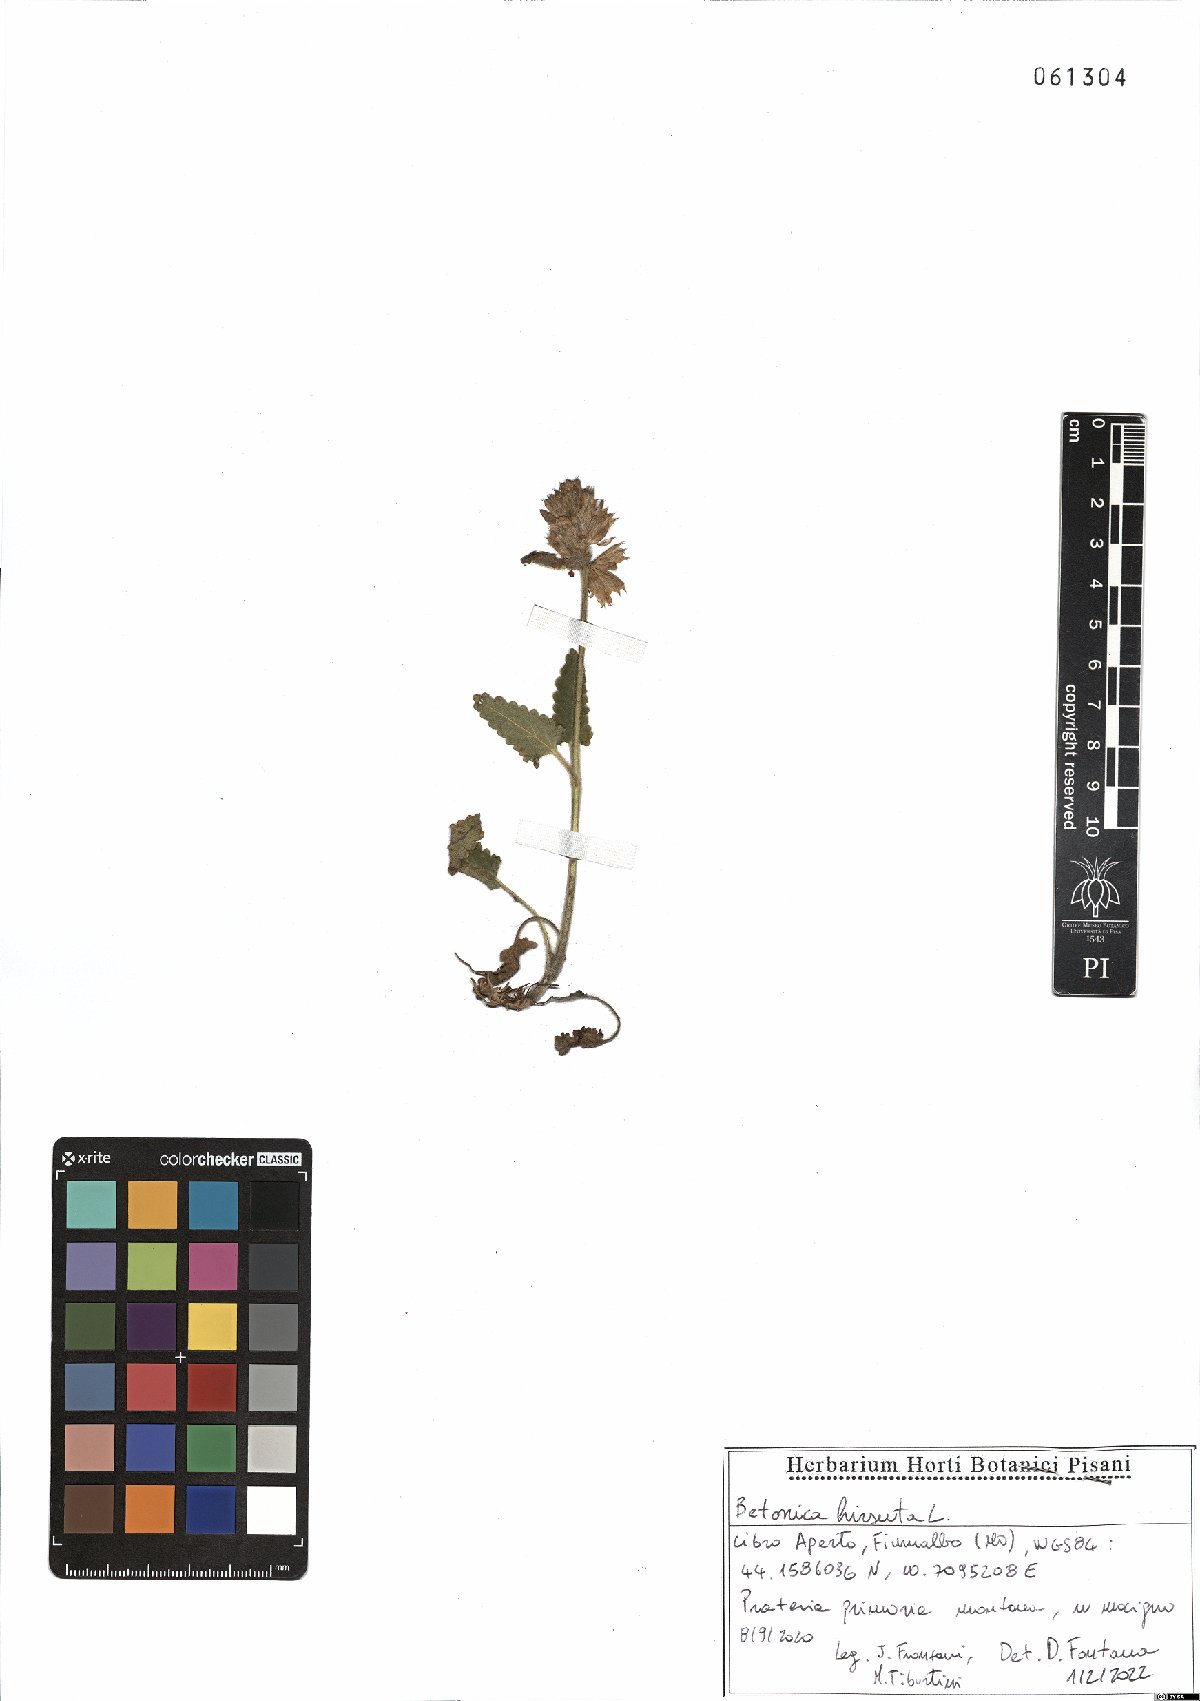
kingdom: Plantae
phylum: Tracheophyta
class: Magnoliopsida
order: Lamiales
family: Lamiaceae
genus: Betonica
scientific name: Betonica hirsuta
